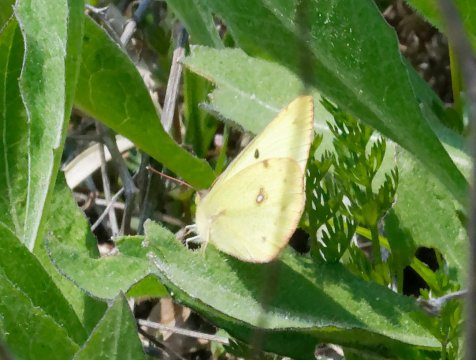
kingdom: Animalia
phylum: Arthropoda
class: Insecta
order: Lepidoptera
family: Pieridae
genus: Colias
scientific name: Colias philodice
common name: Clouded Sulphur
